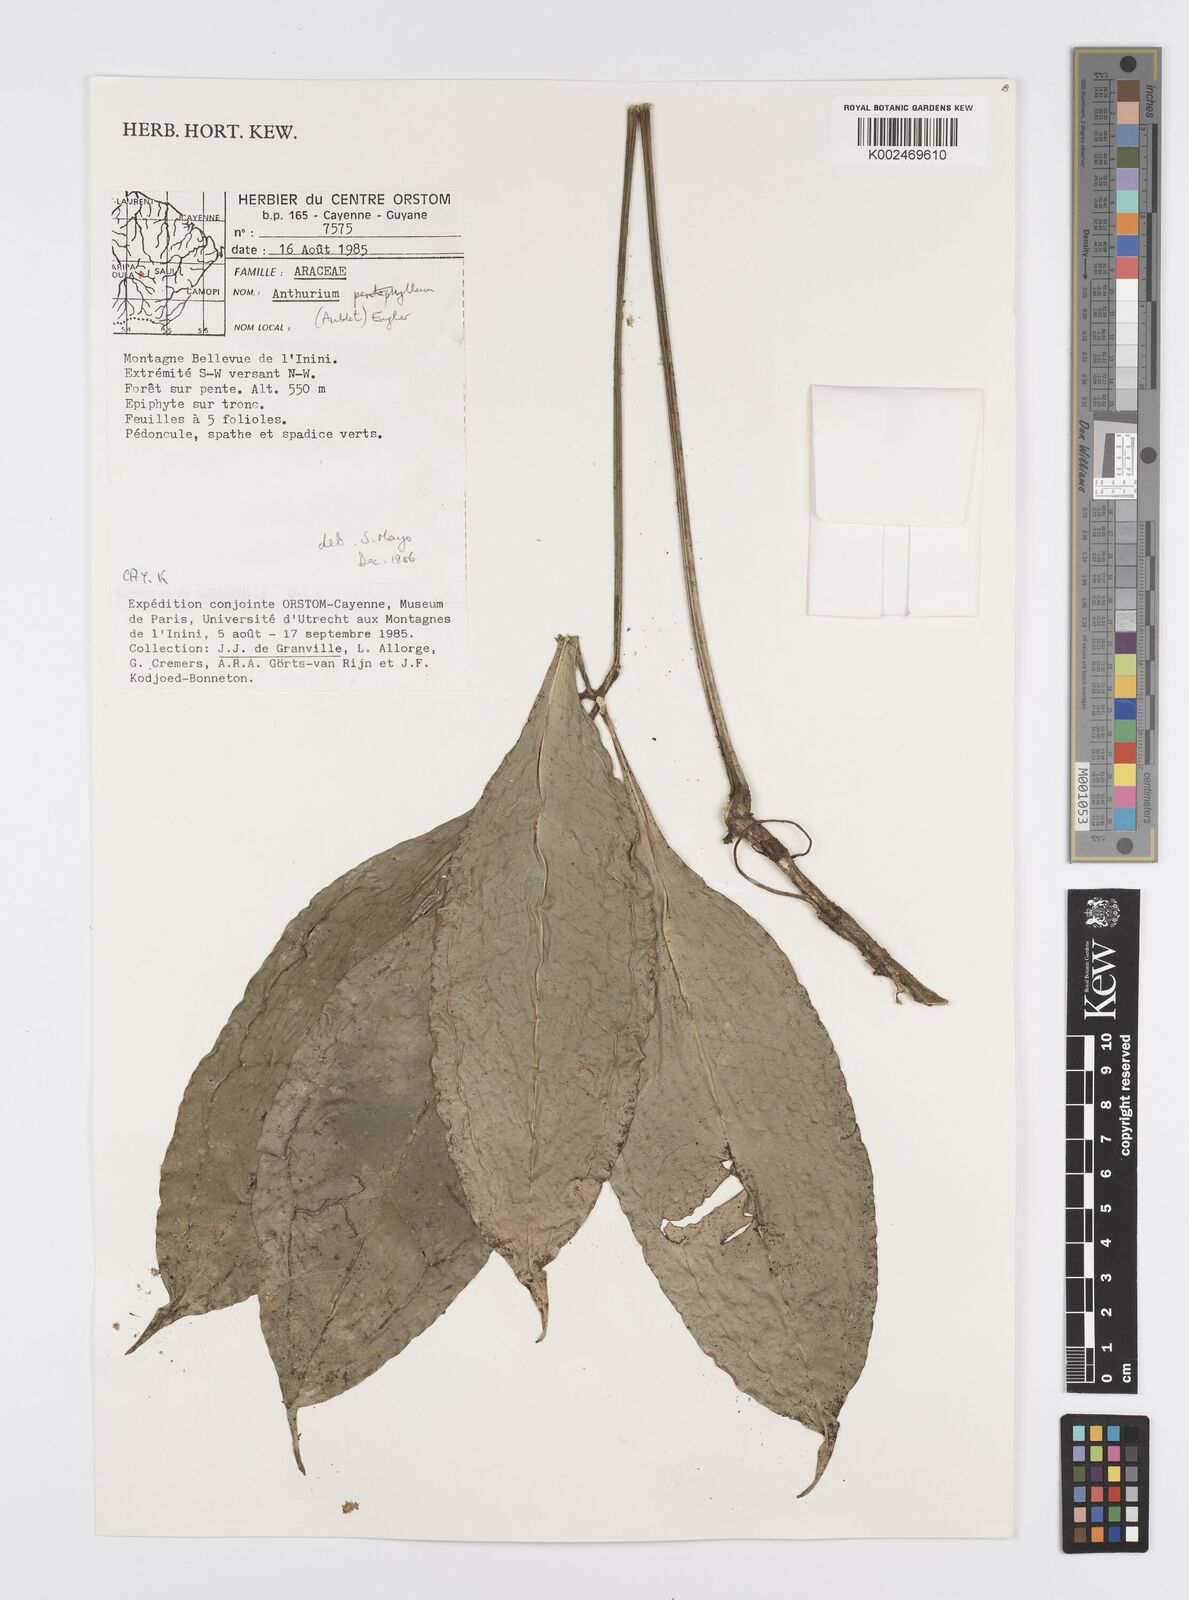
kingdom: Plantae
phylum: Tracheophyta
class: Liliopsida
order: Alismatales
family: Araceae
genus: Anthurium
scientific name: Anthurium pentaphyllum
